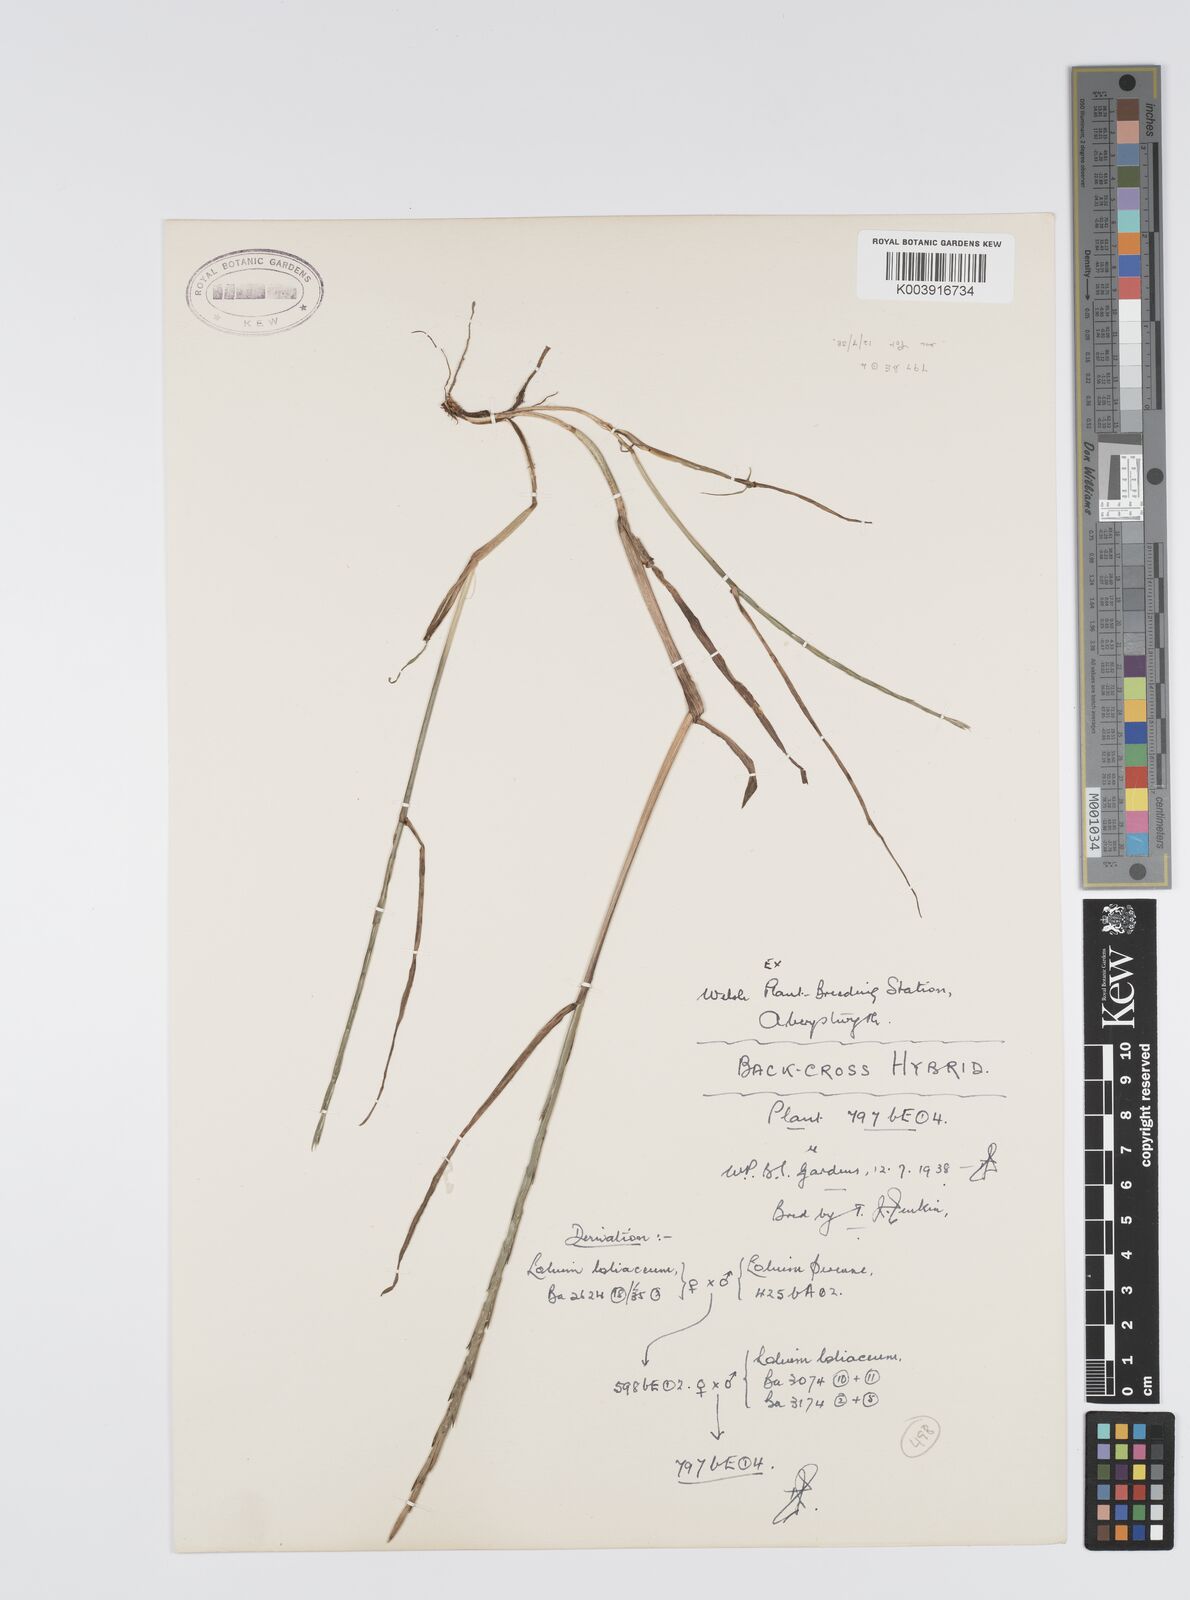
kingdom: Plantae
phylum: Tracheophyta
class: Liliopsida
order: Poales
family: Poaceae
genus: Lolium
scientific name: Lolium perenne
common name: Perennial ryegrass
